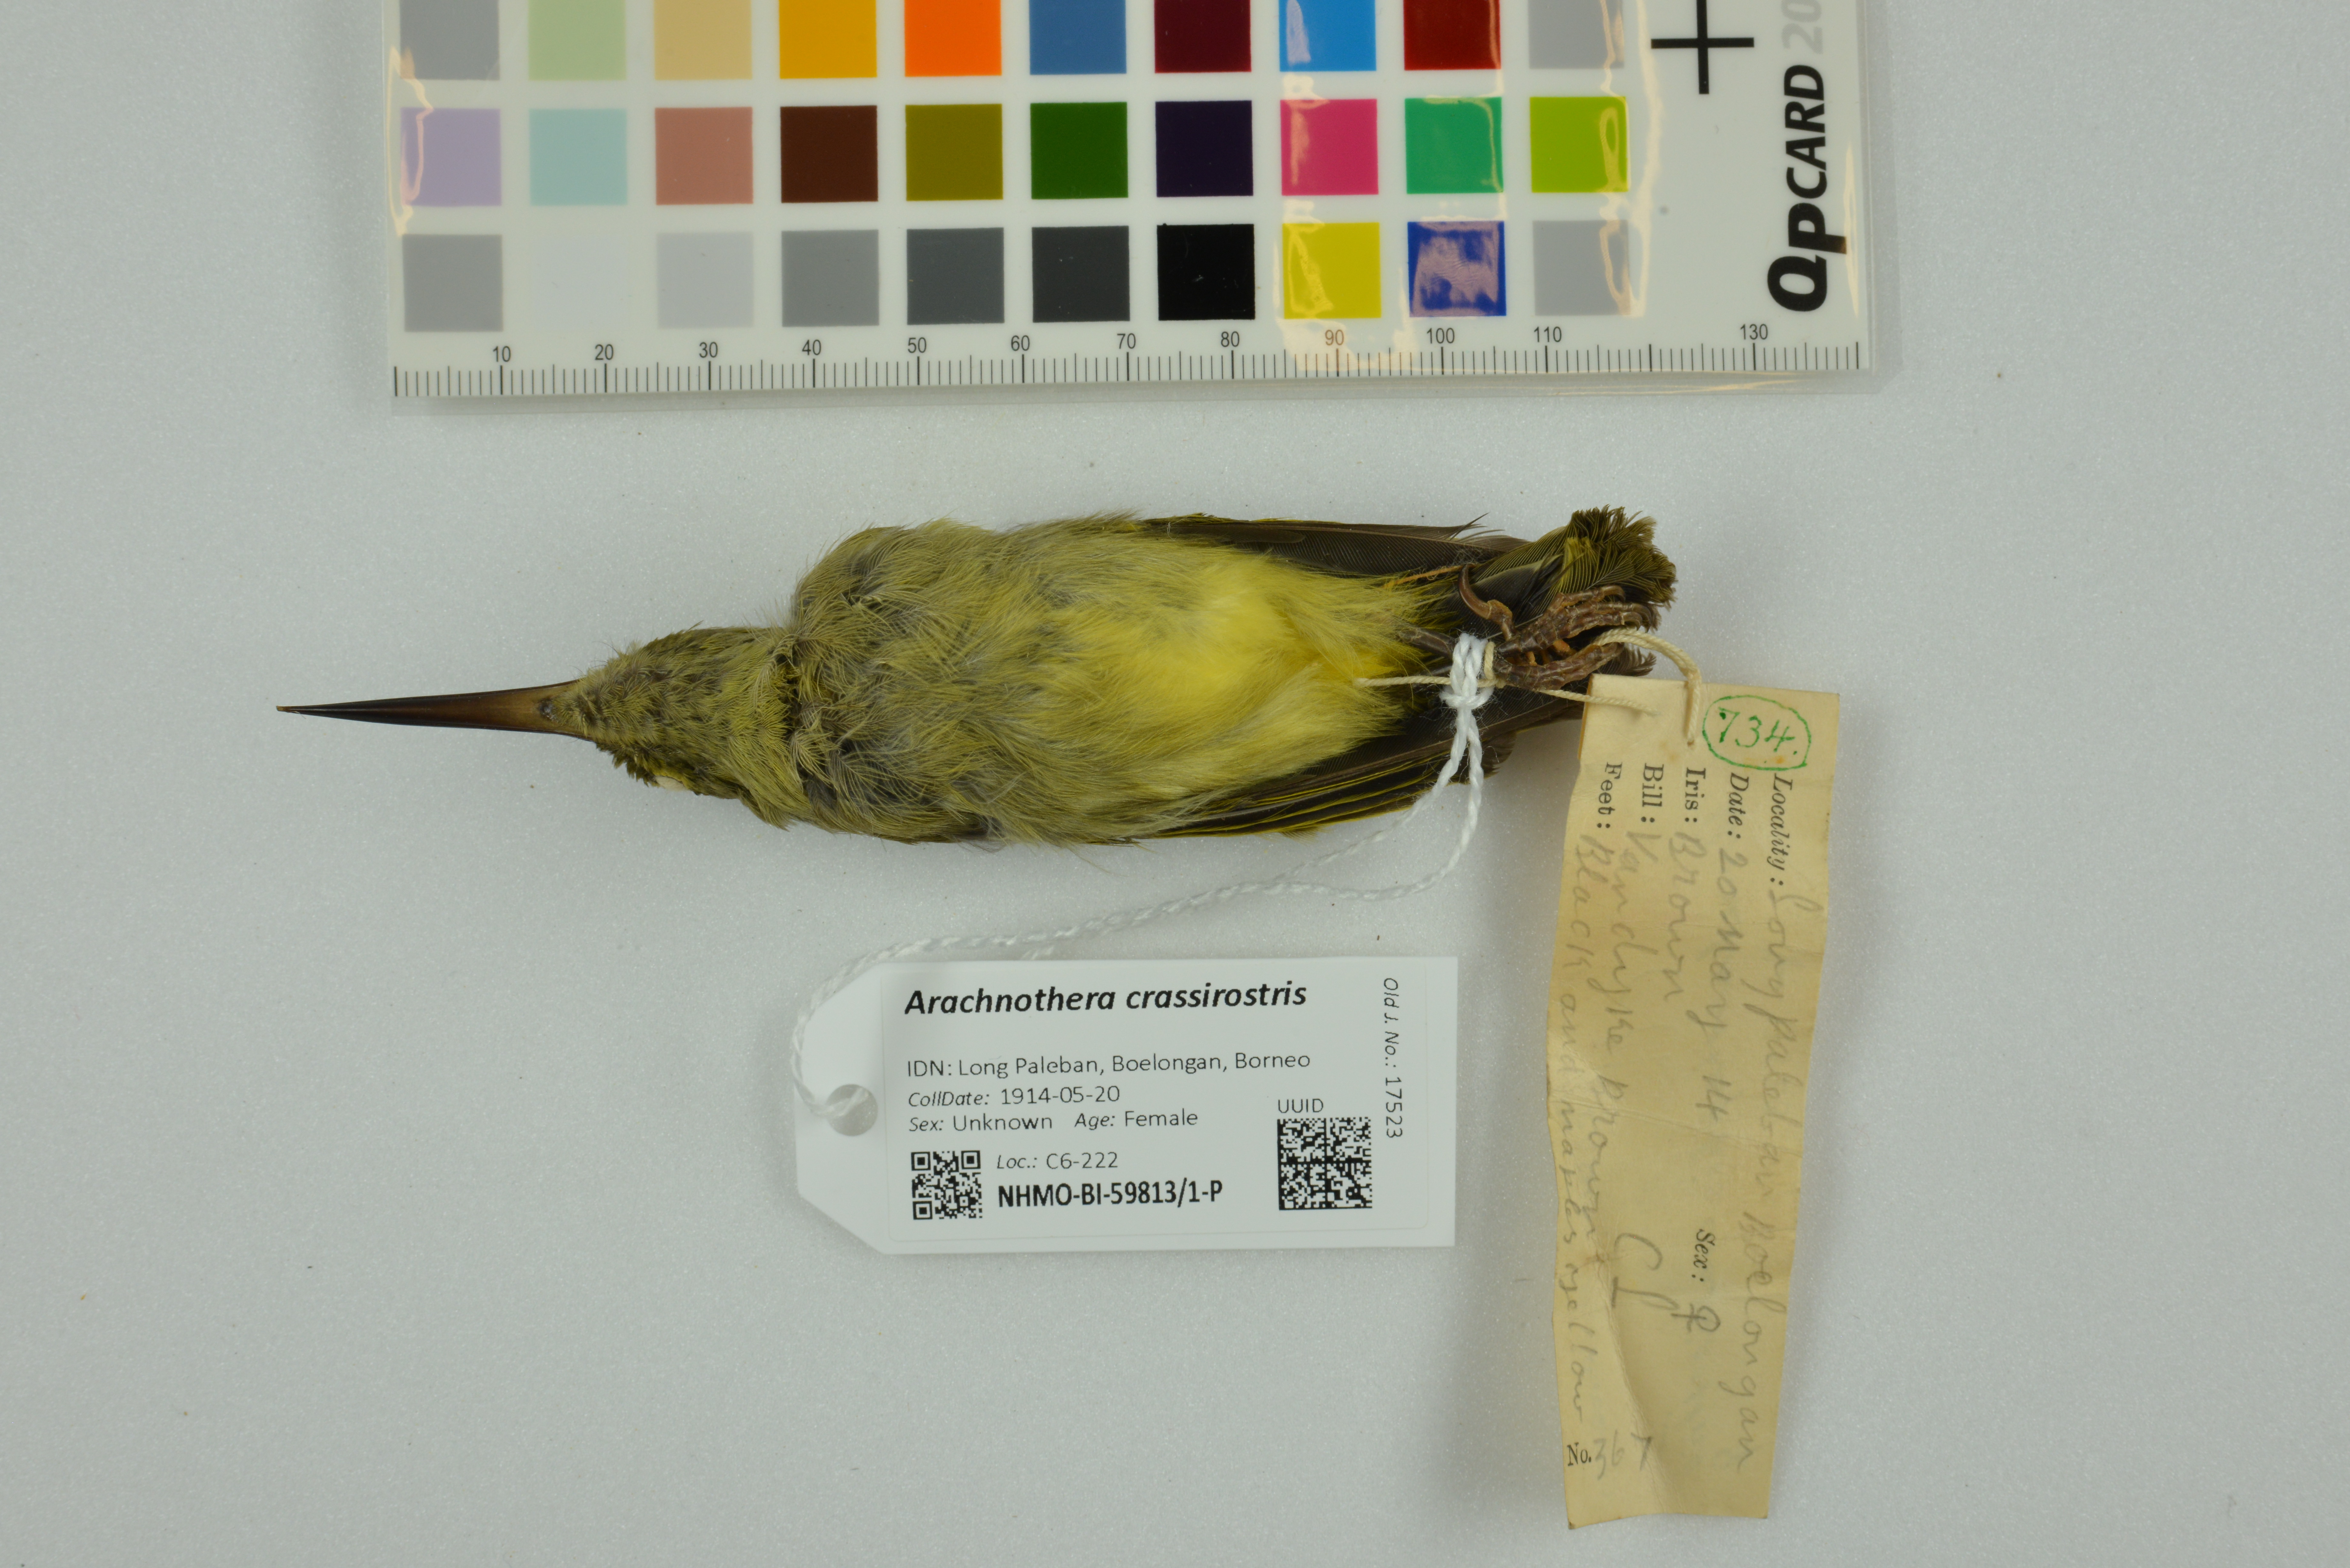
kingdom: Animalia
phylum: Chordata
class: Aves
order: Passeriformes
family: Nectariniidae
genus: Arachnothera
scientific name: Arachnothera crassirostris
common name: Thick-billed spiderhunter
